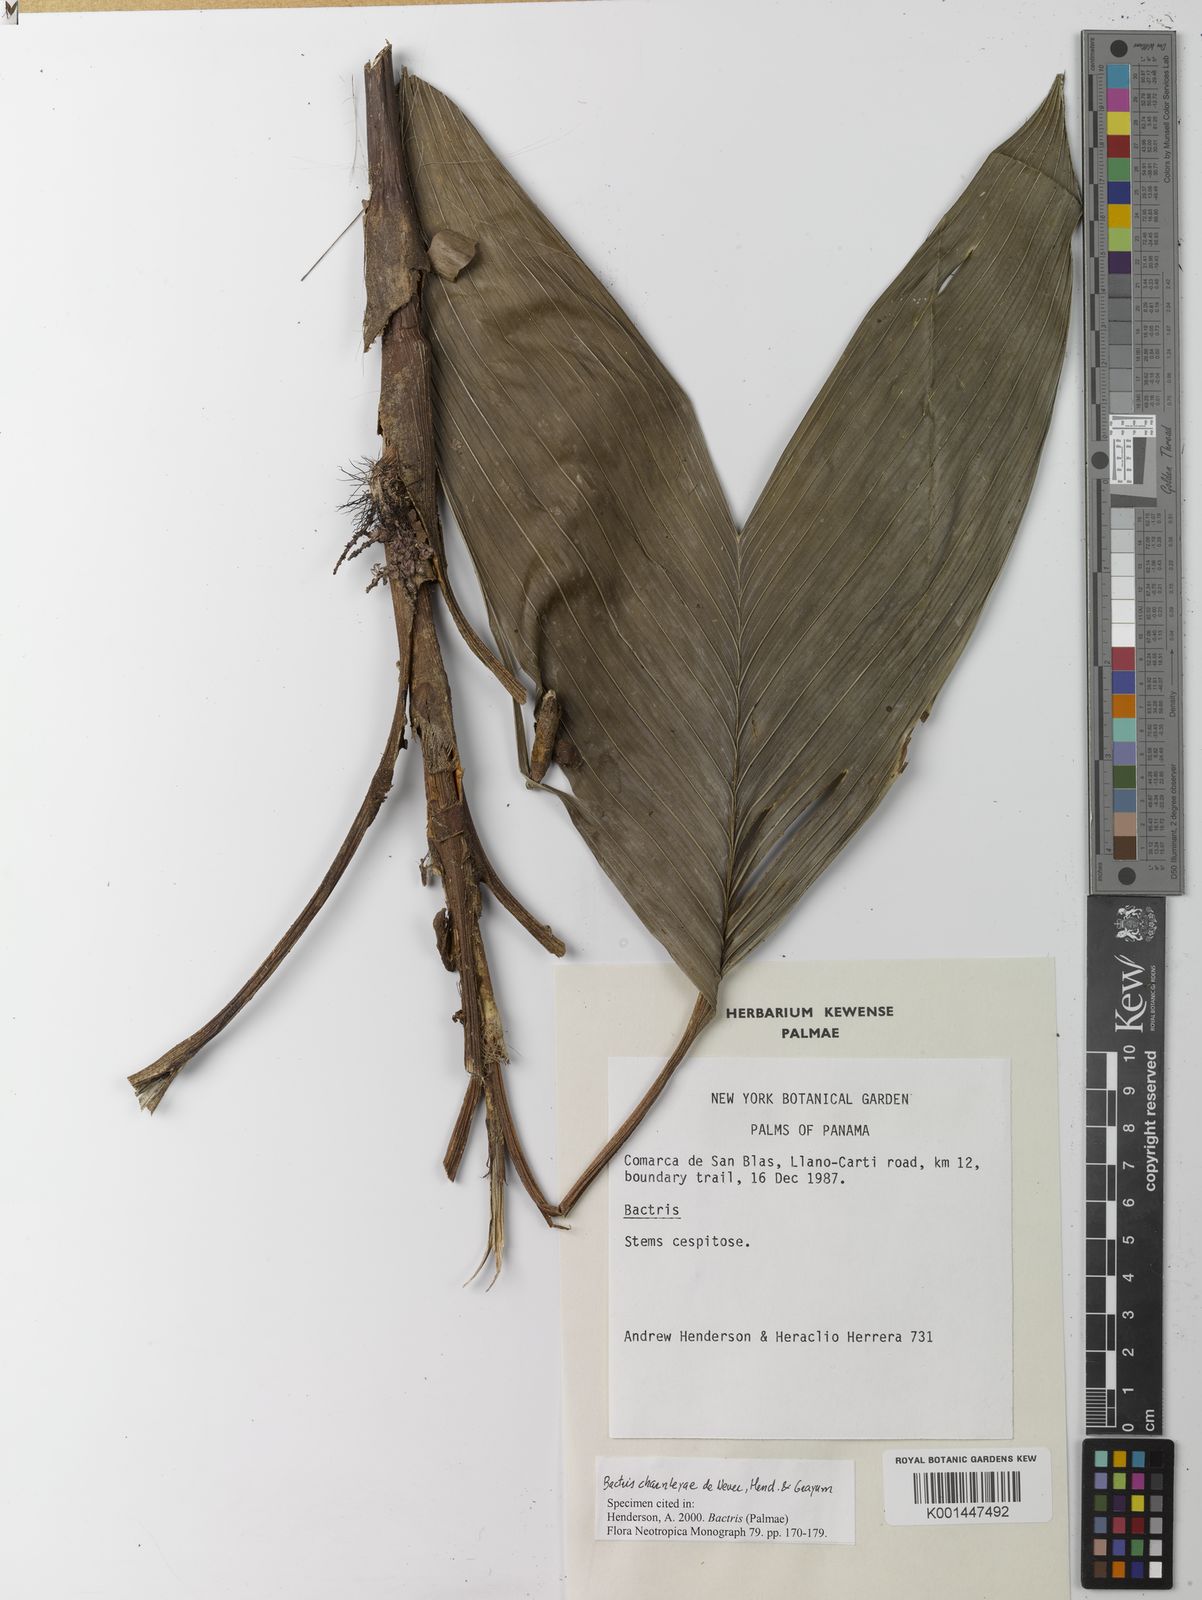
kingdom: Plantae
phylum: Tracheophyta
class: Liliopsida
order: Arecales
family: Arecaceae
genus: Bactris
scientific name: Bactris charnleyae
